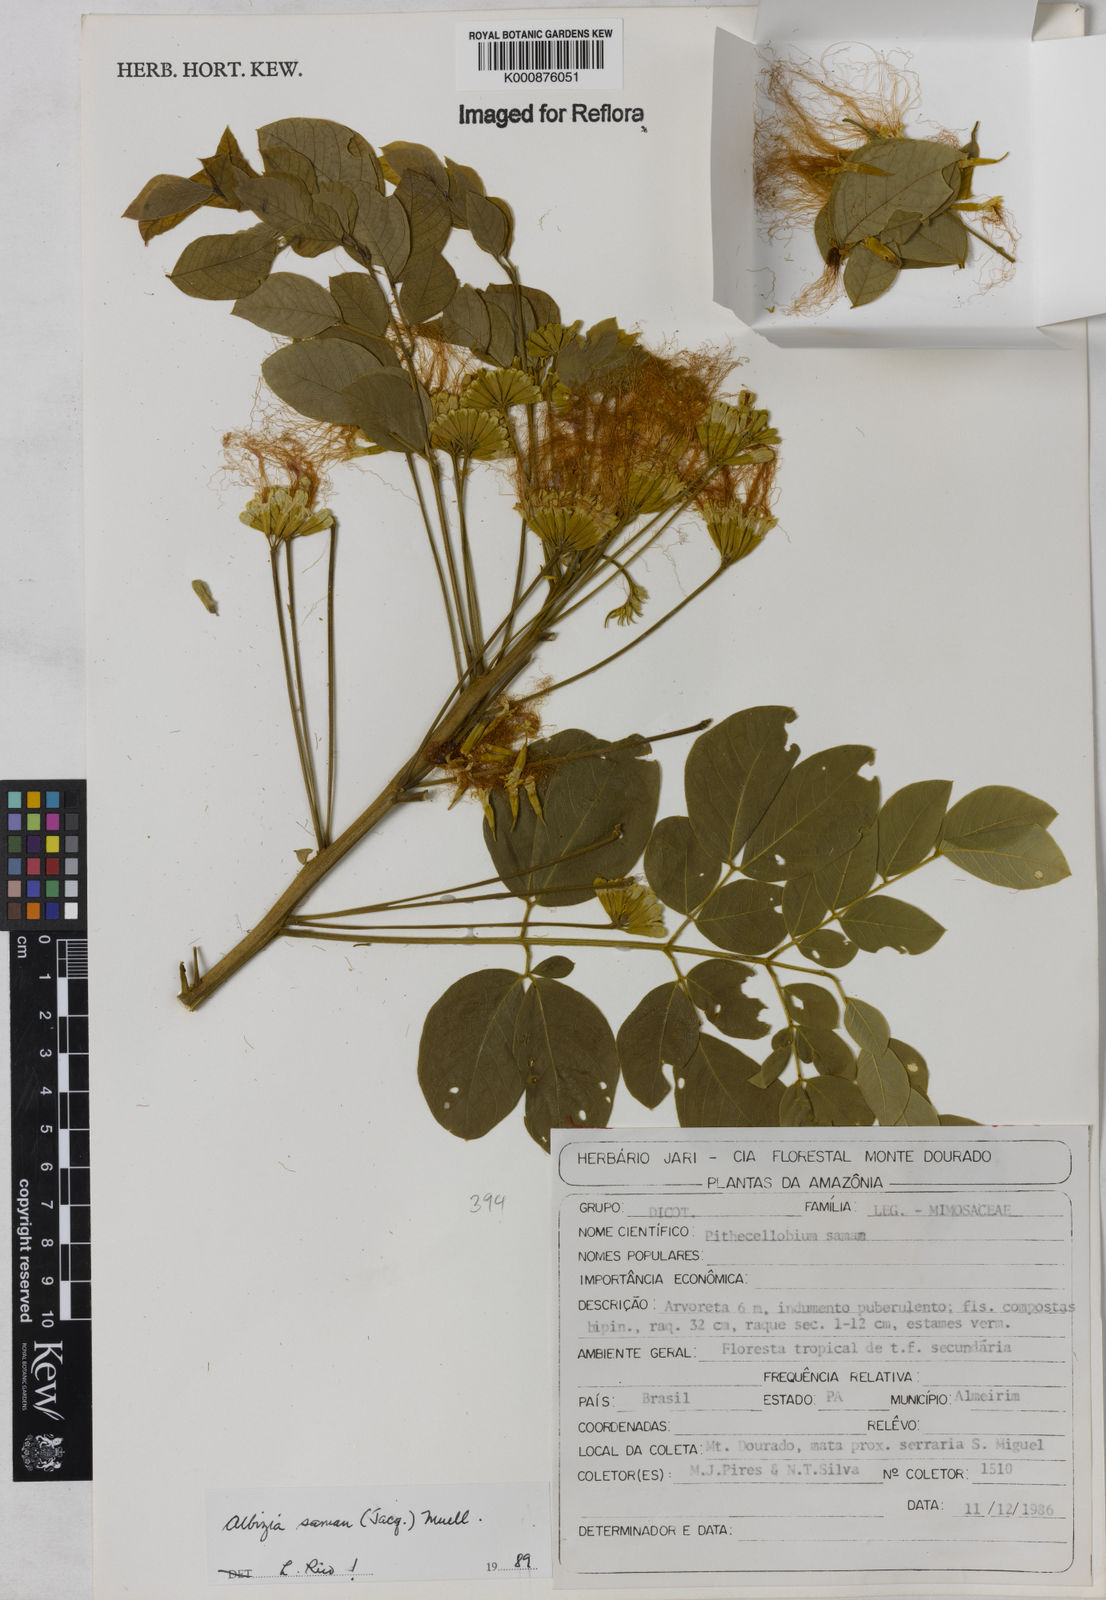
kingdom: Plantae
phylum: Tracheophyta
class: Magnoliopsida
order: Fabales
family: Fabaceae
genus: Samanea
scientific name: Samanea saman
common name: Raintree
